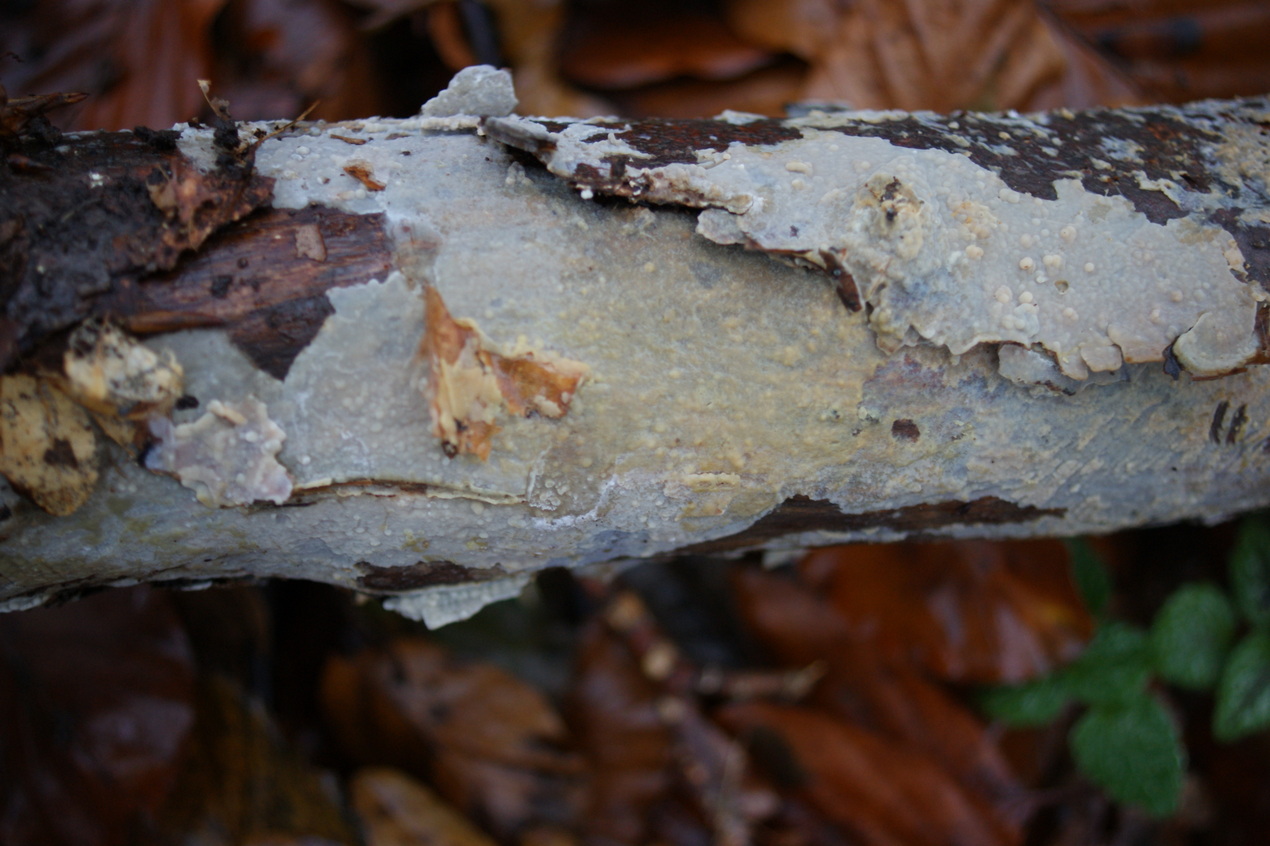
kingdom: Fungi
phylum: Basidiomycota
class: Agaricomycetes
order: Agaricales
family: Radulomycetaceae
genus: Radulomyces
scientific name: Radulomyces confluens
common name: glat naftalinskind
